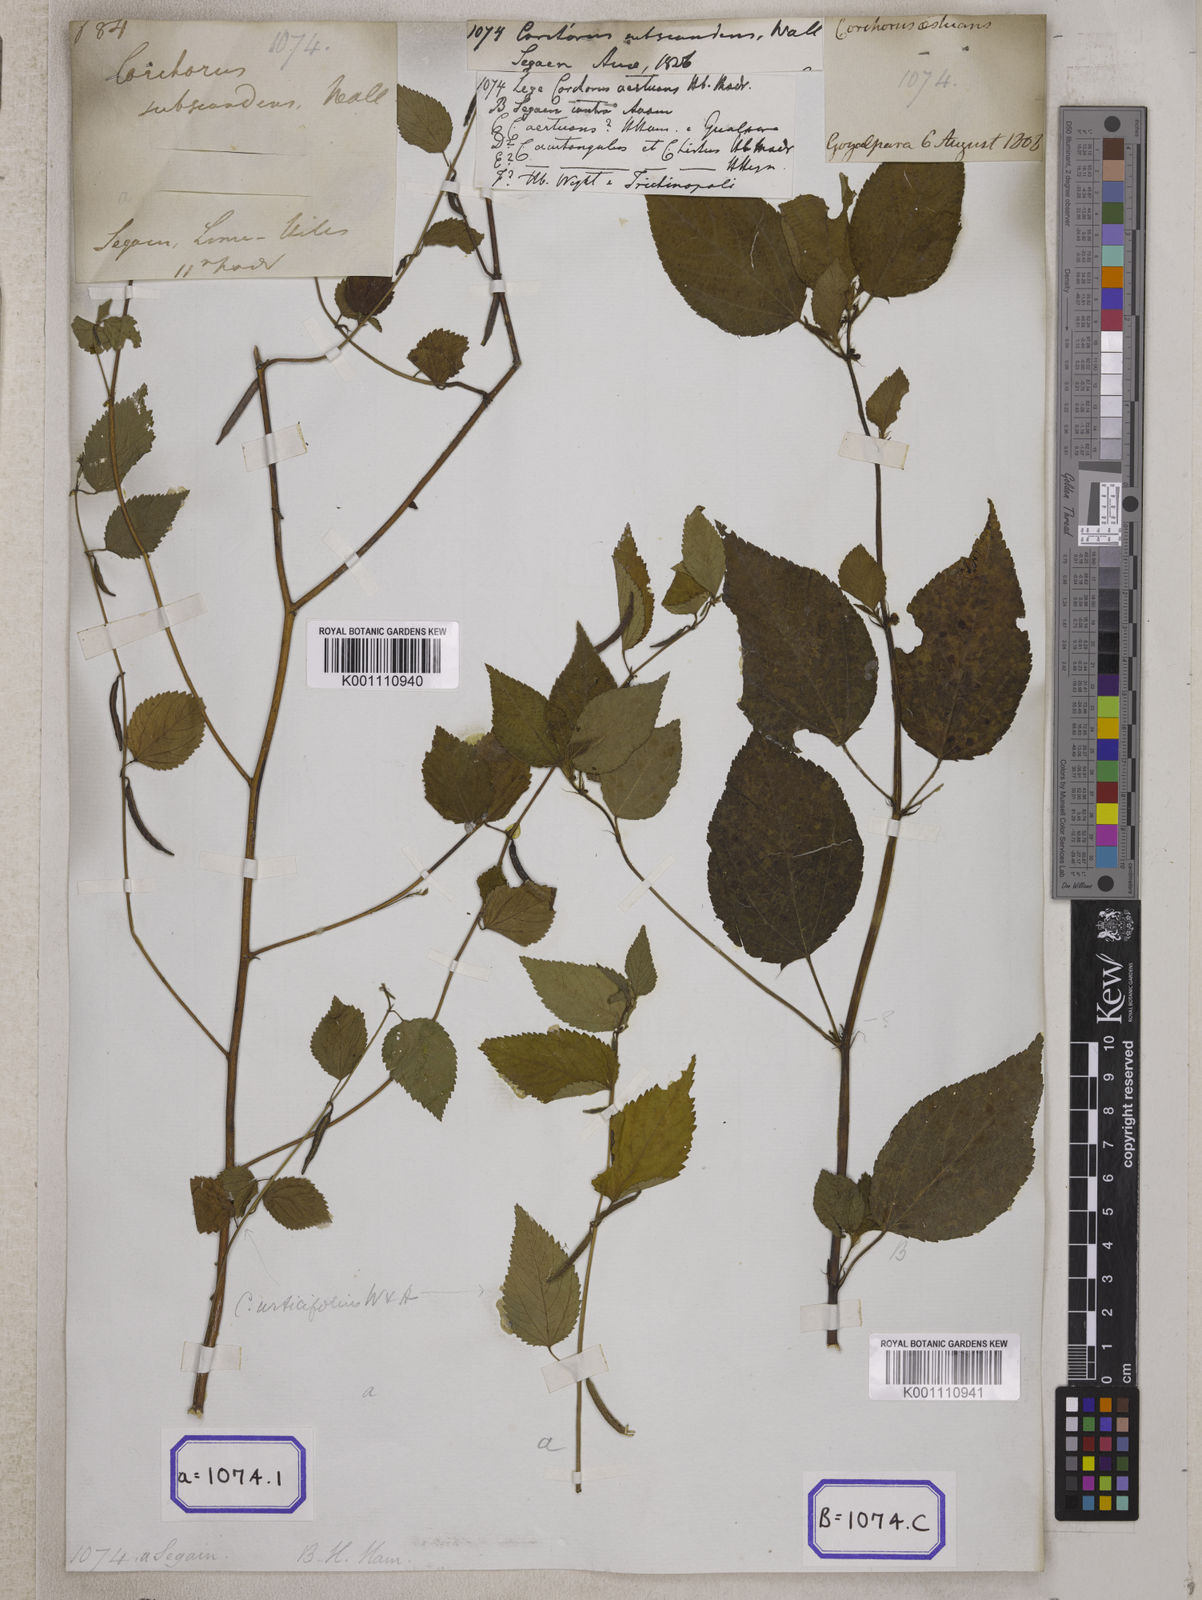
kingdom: Plantae
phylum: Tracheophyta
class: Magnoliopsida
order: Malvales
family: Malvaceae
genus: Corchorus
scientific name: Corchorus urticifolius
